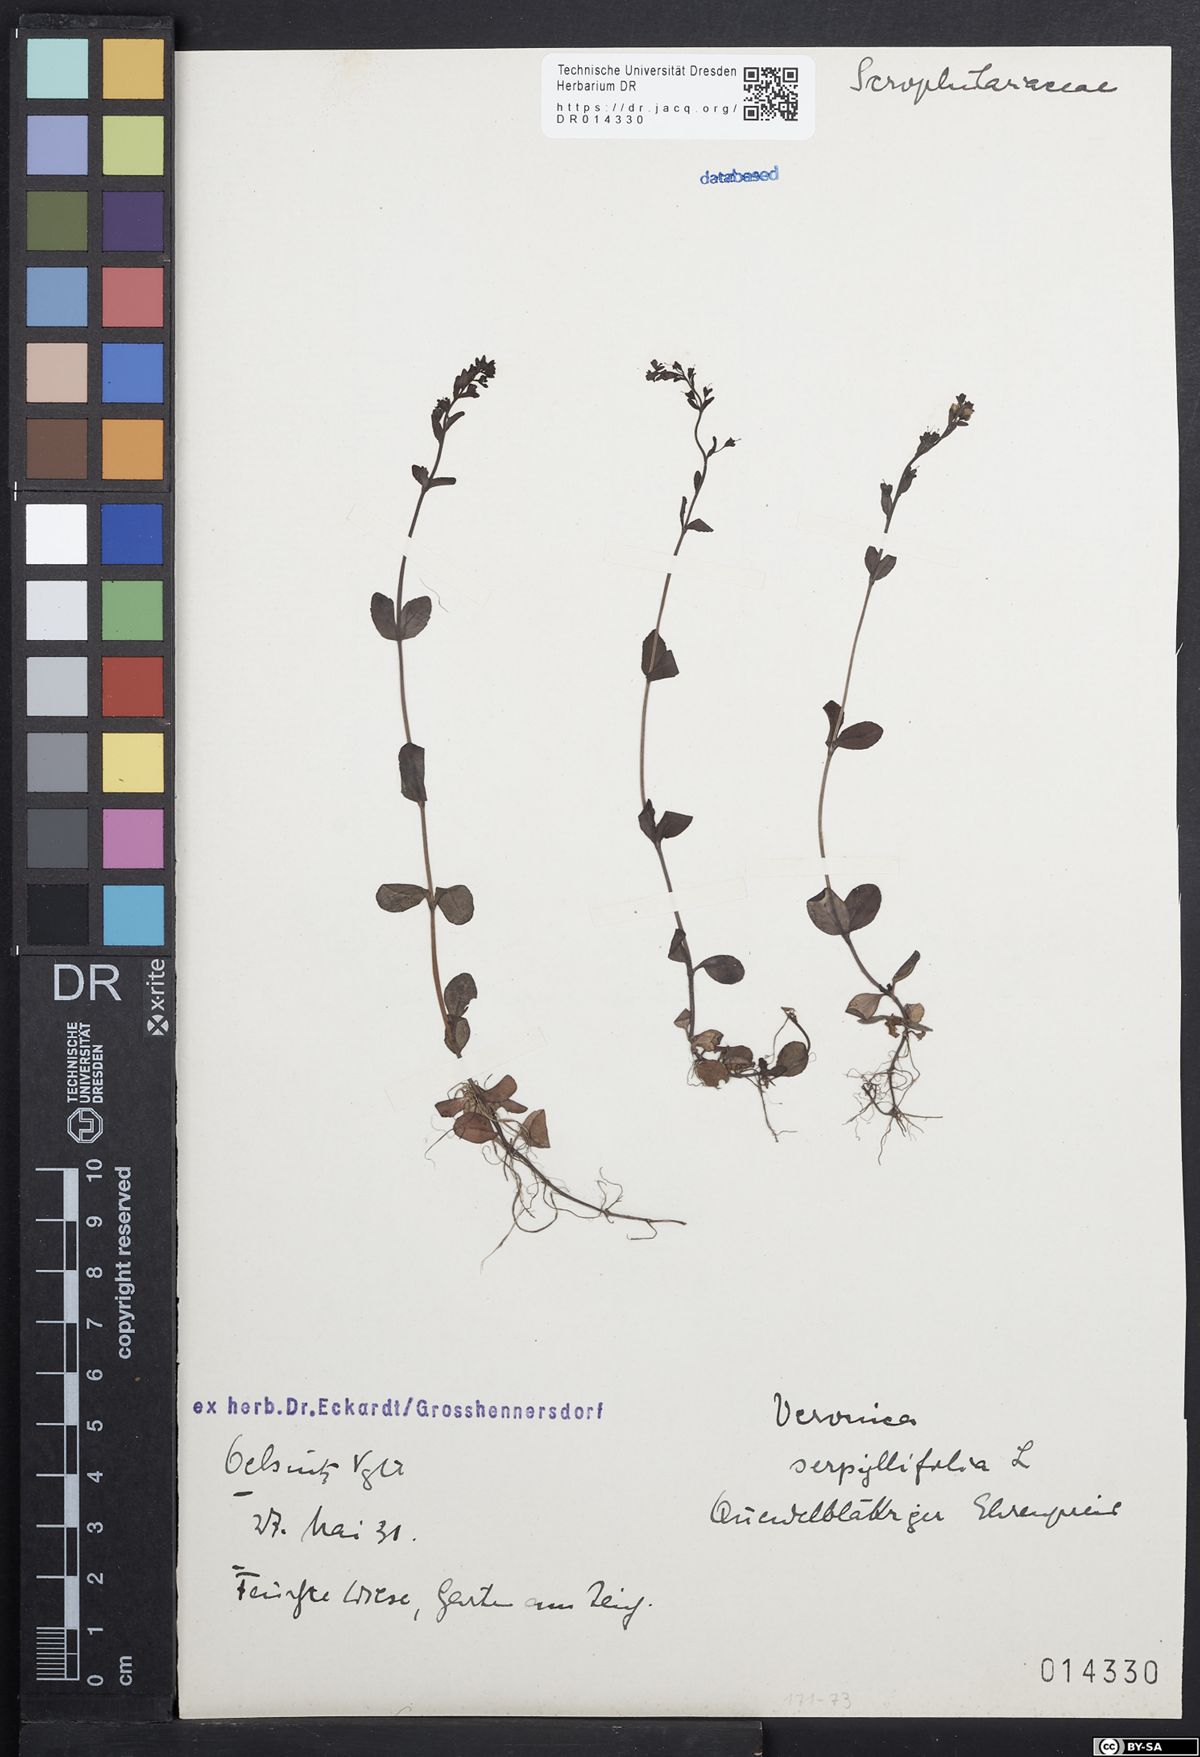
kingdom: Plantae
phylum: Tracheophyta
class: Magnoliopsida
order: Lamiales
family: Plantaginaceae
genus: Veronica
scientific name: Veronica serpyllifolia
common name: Thyme-leaved speedwell
